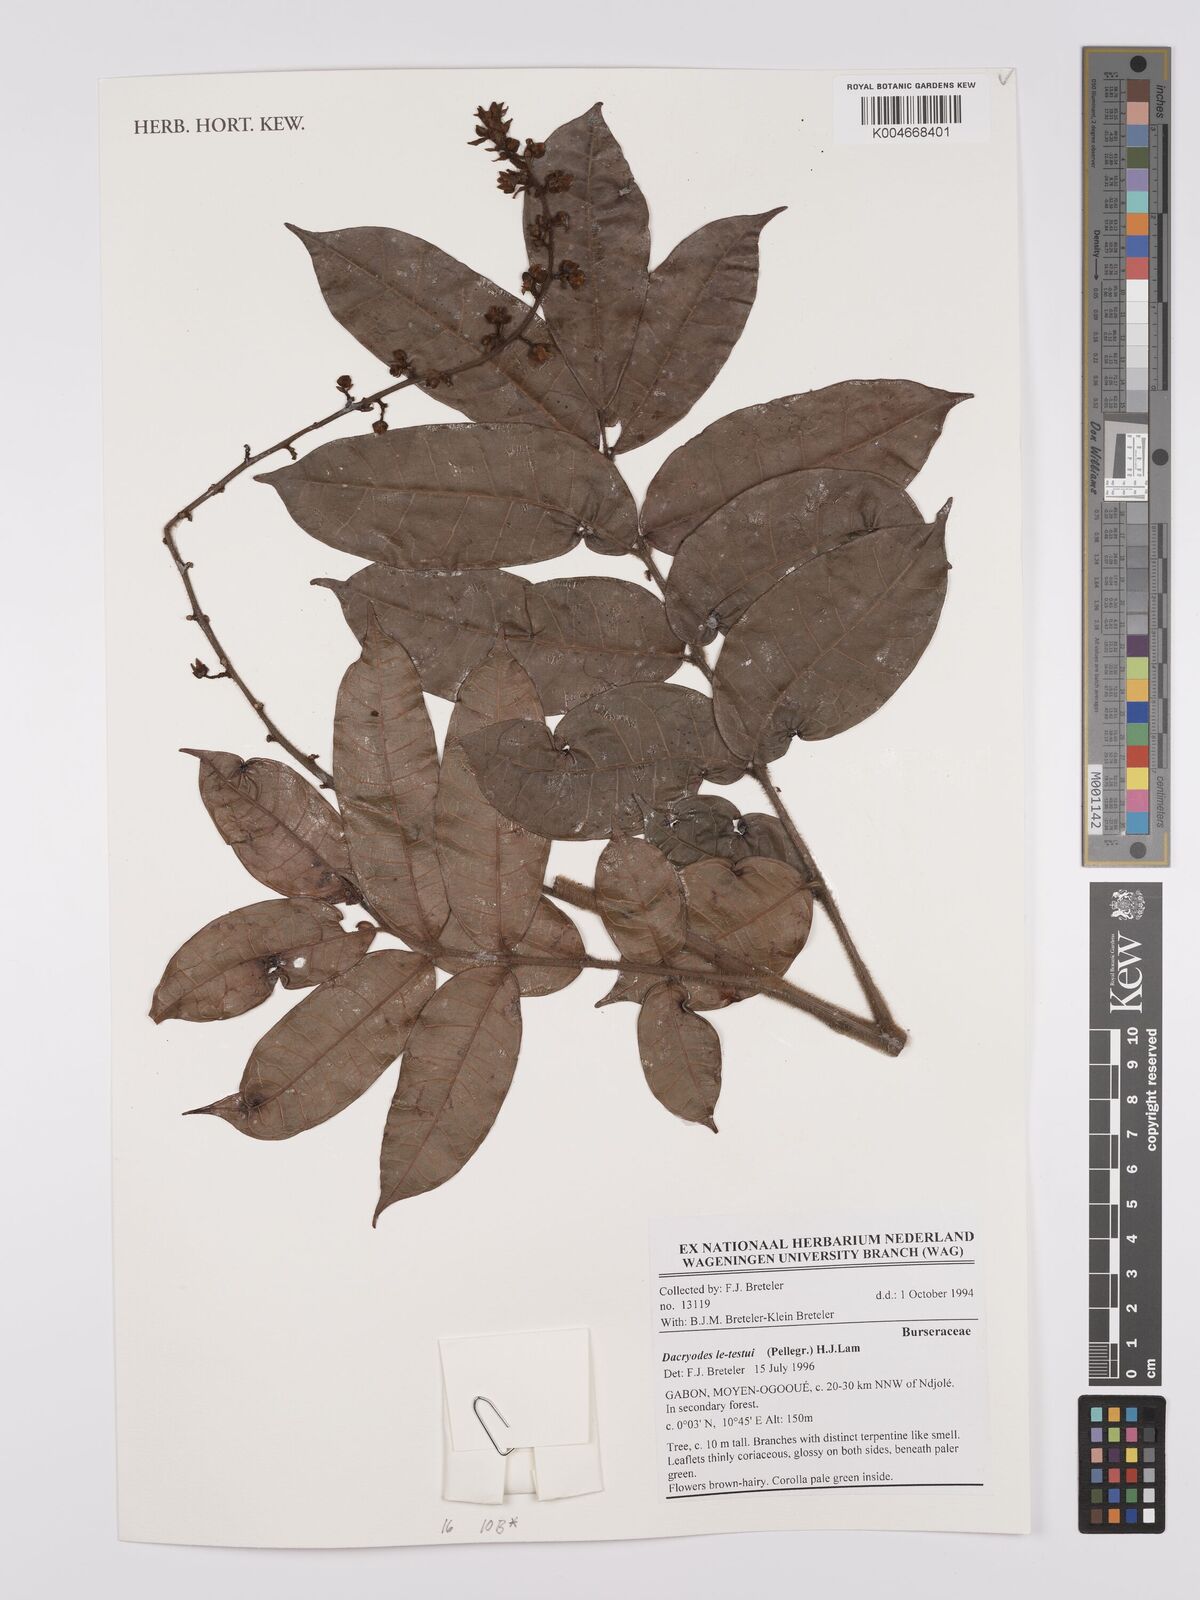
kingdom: Plantae
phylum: Tracheophyta
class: Magnoliopsida
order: Sapindales
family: Burseraceae
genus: Pachylobus
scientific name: Pachylobus letestui
